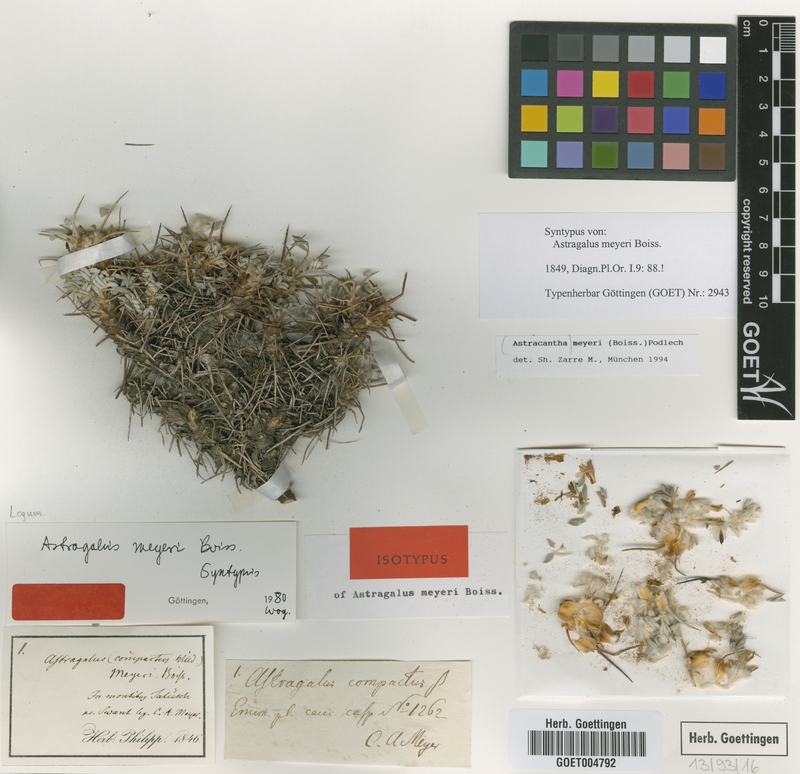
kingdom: Plantae
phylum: Tracheophyta
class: Magnoliopsida
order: Fabales
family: Fabaceae
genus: Astragalus
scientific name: Astragalus meyeri
